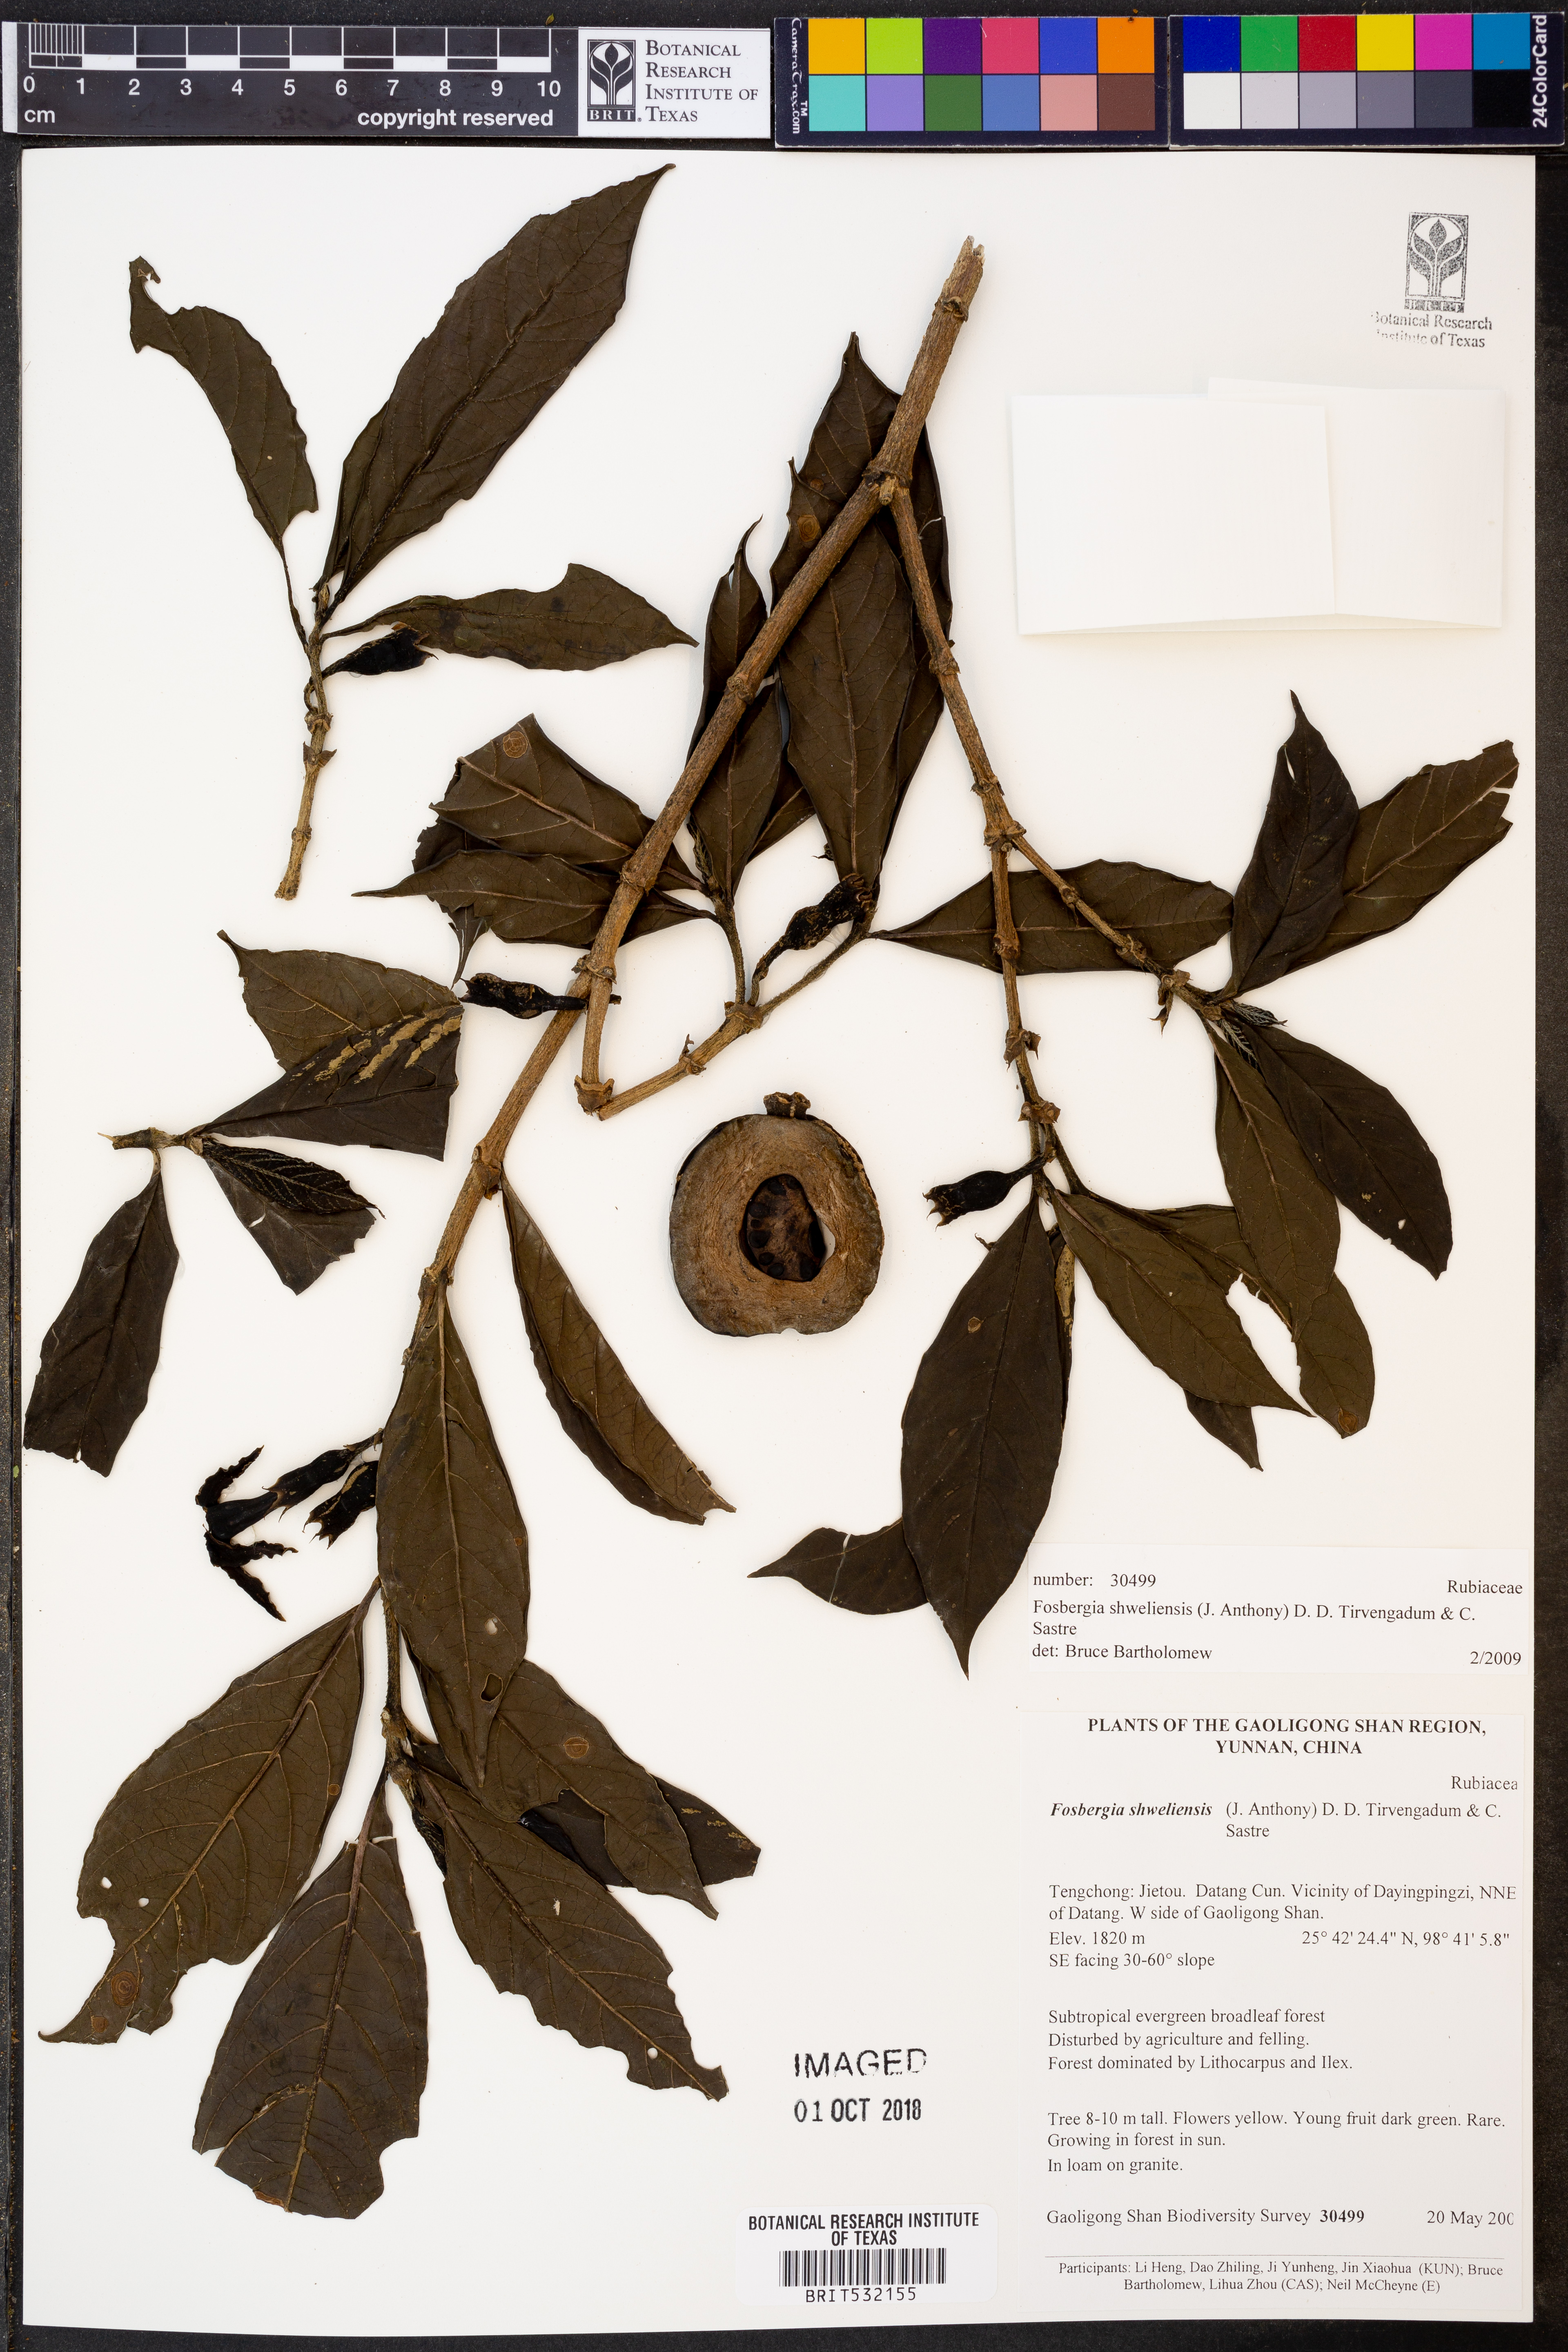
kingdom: Plantae
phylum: Tracheophyta
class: Magnoliopsida
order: Gentianales
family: Rubiaceae
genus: Fosbergia
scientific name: Fosbergia shweliensis
